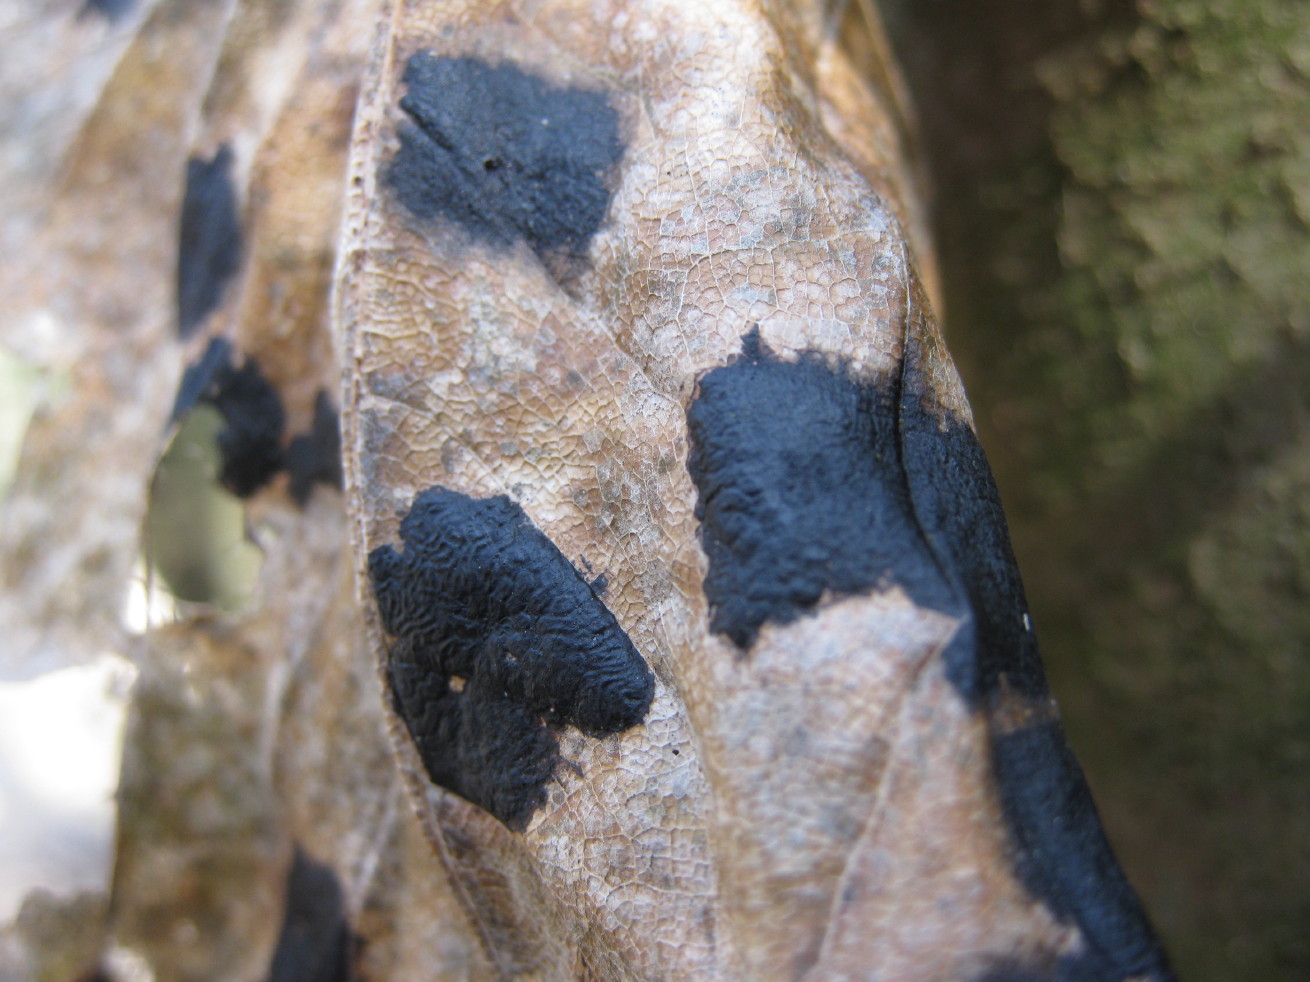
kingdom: Fungi
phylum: Ascomycota
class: Leotiomycetes
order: Rhytismatales
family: Rhytismataceae
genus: Rhytisma
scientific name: Rhytisma acerinum
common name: ahorn-rynkeplet
